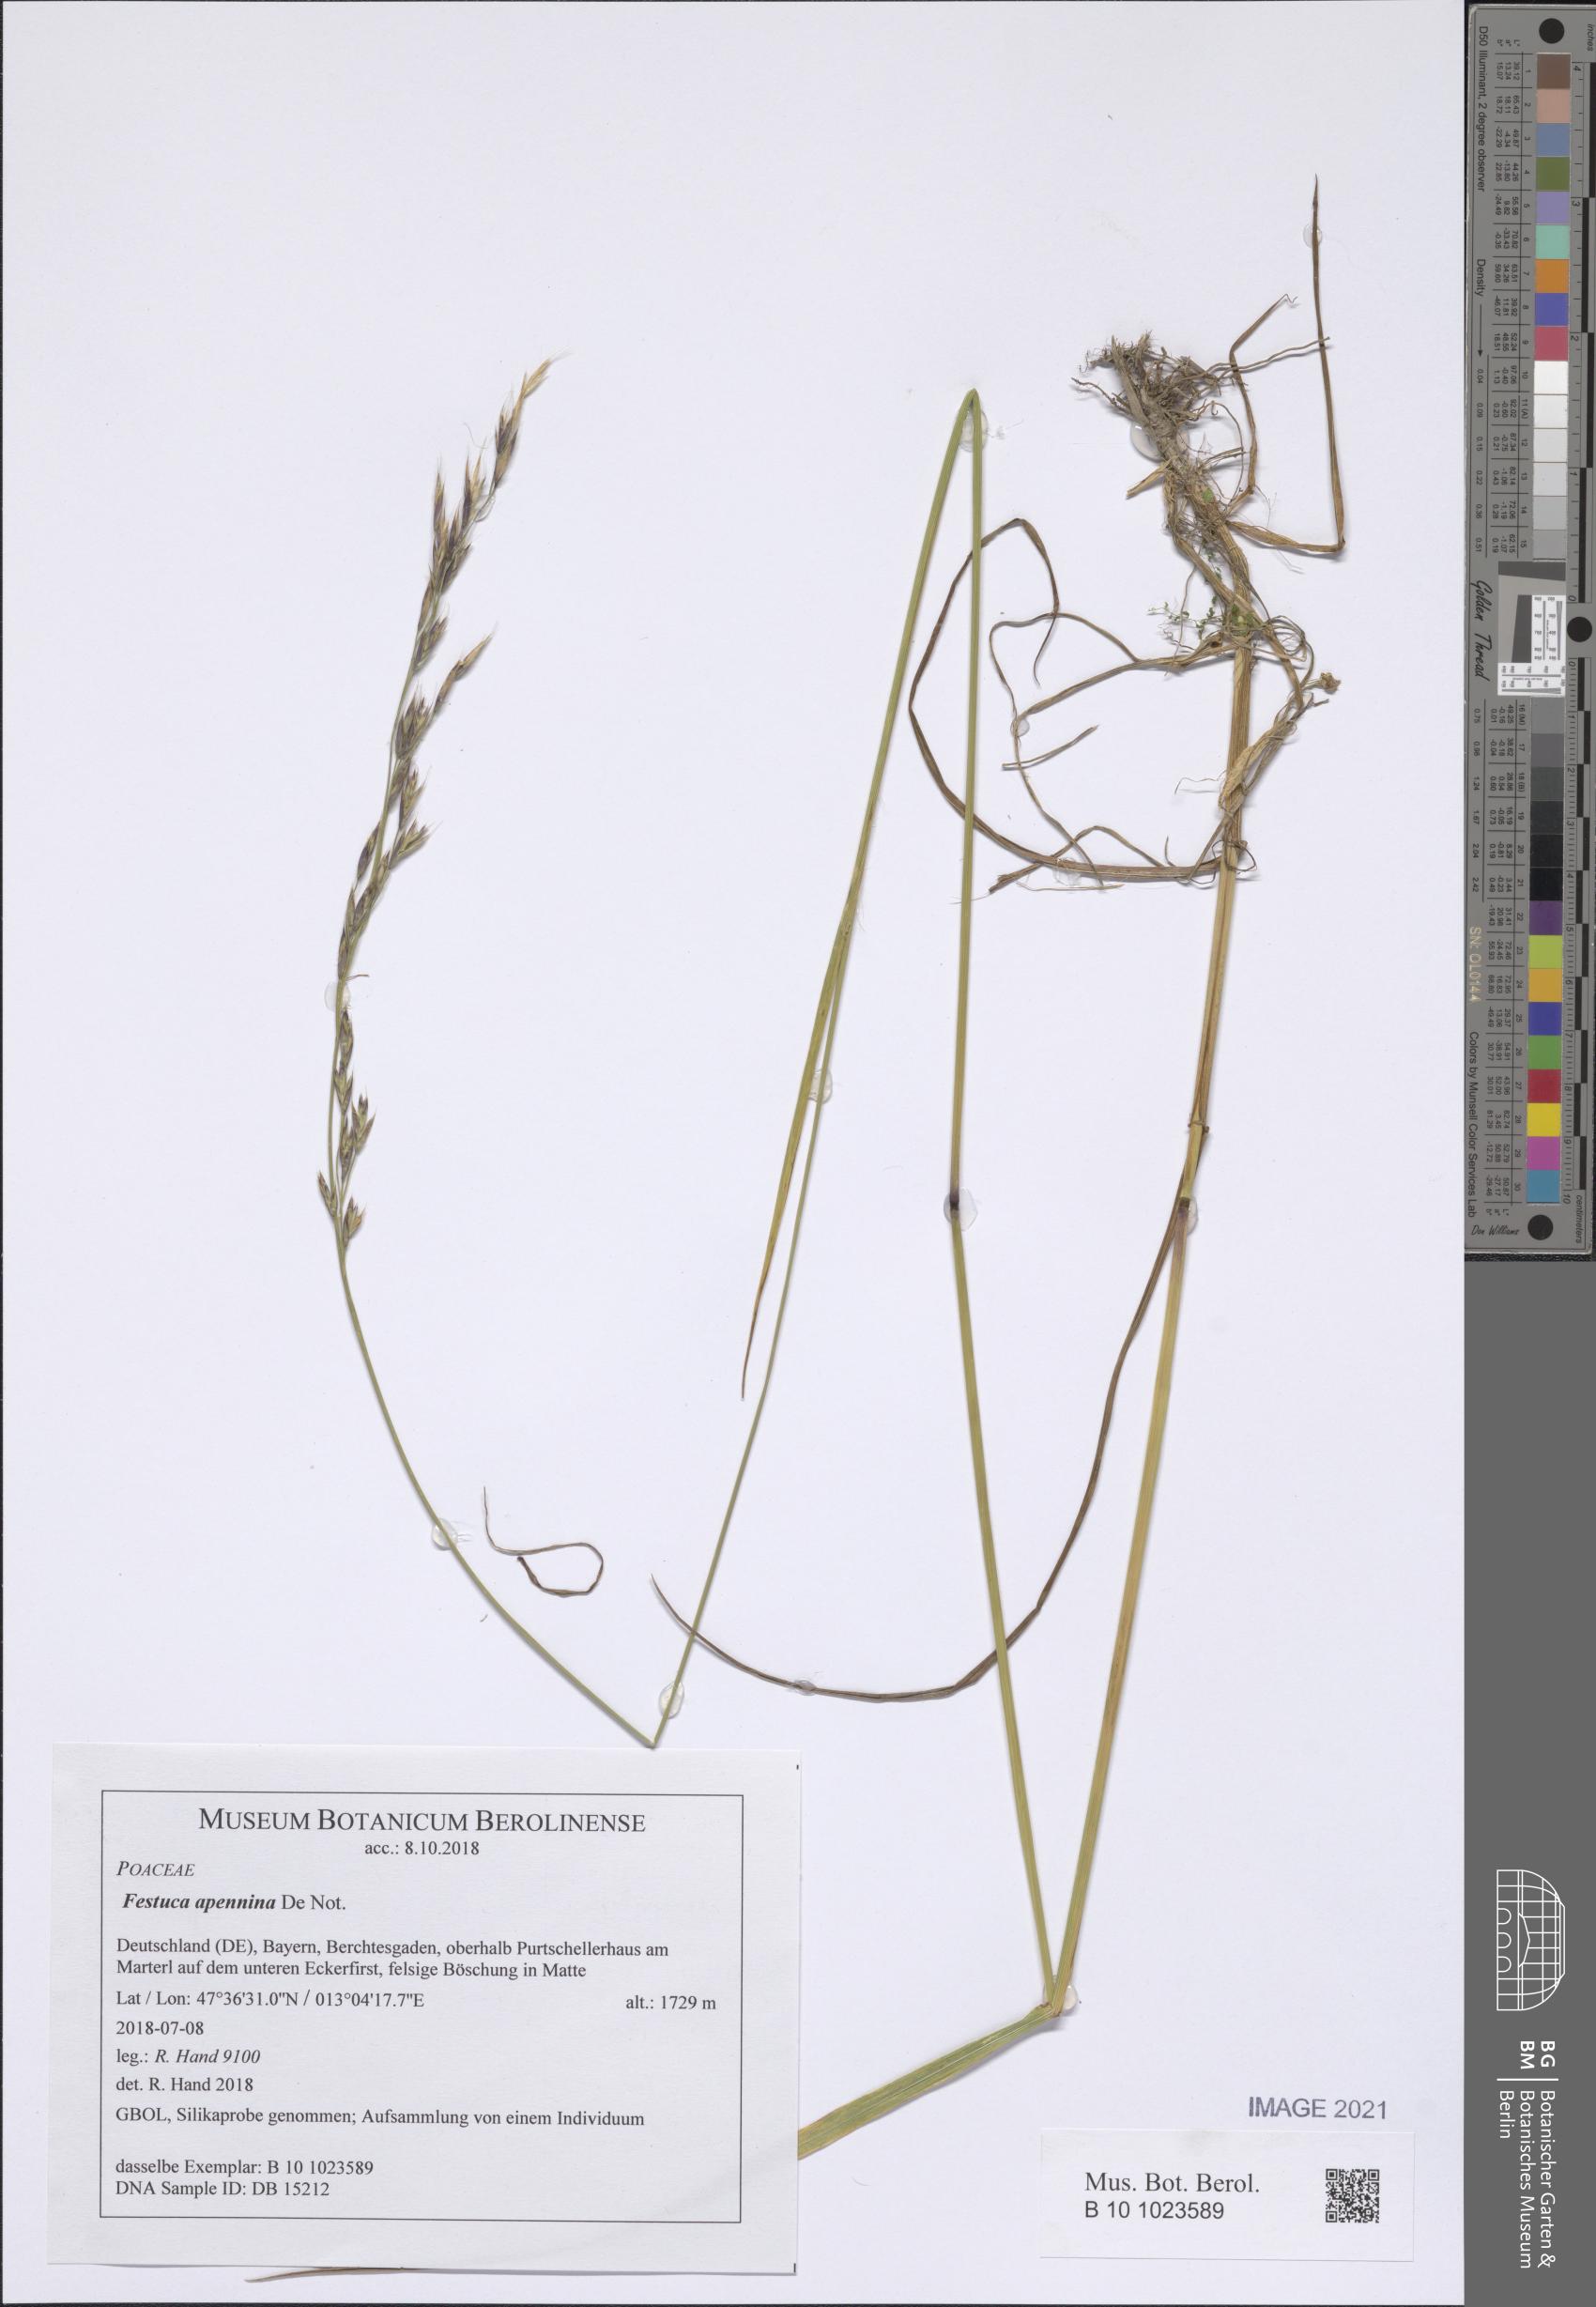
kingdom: Plantae
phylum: Tracheophyta
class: Liliopsida
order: Poales
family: Poaceae
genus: Lolium
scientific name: Lolium apenninum
